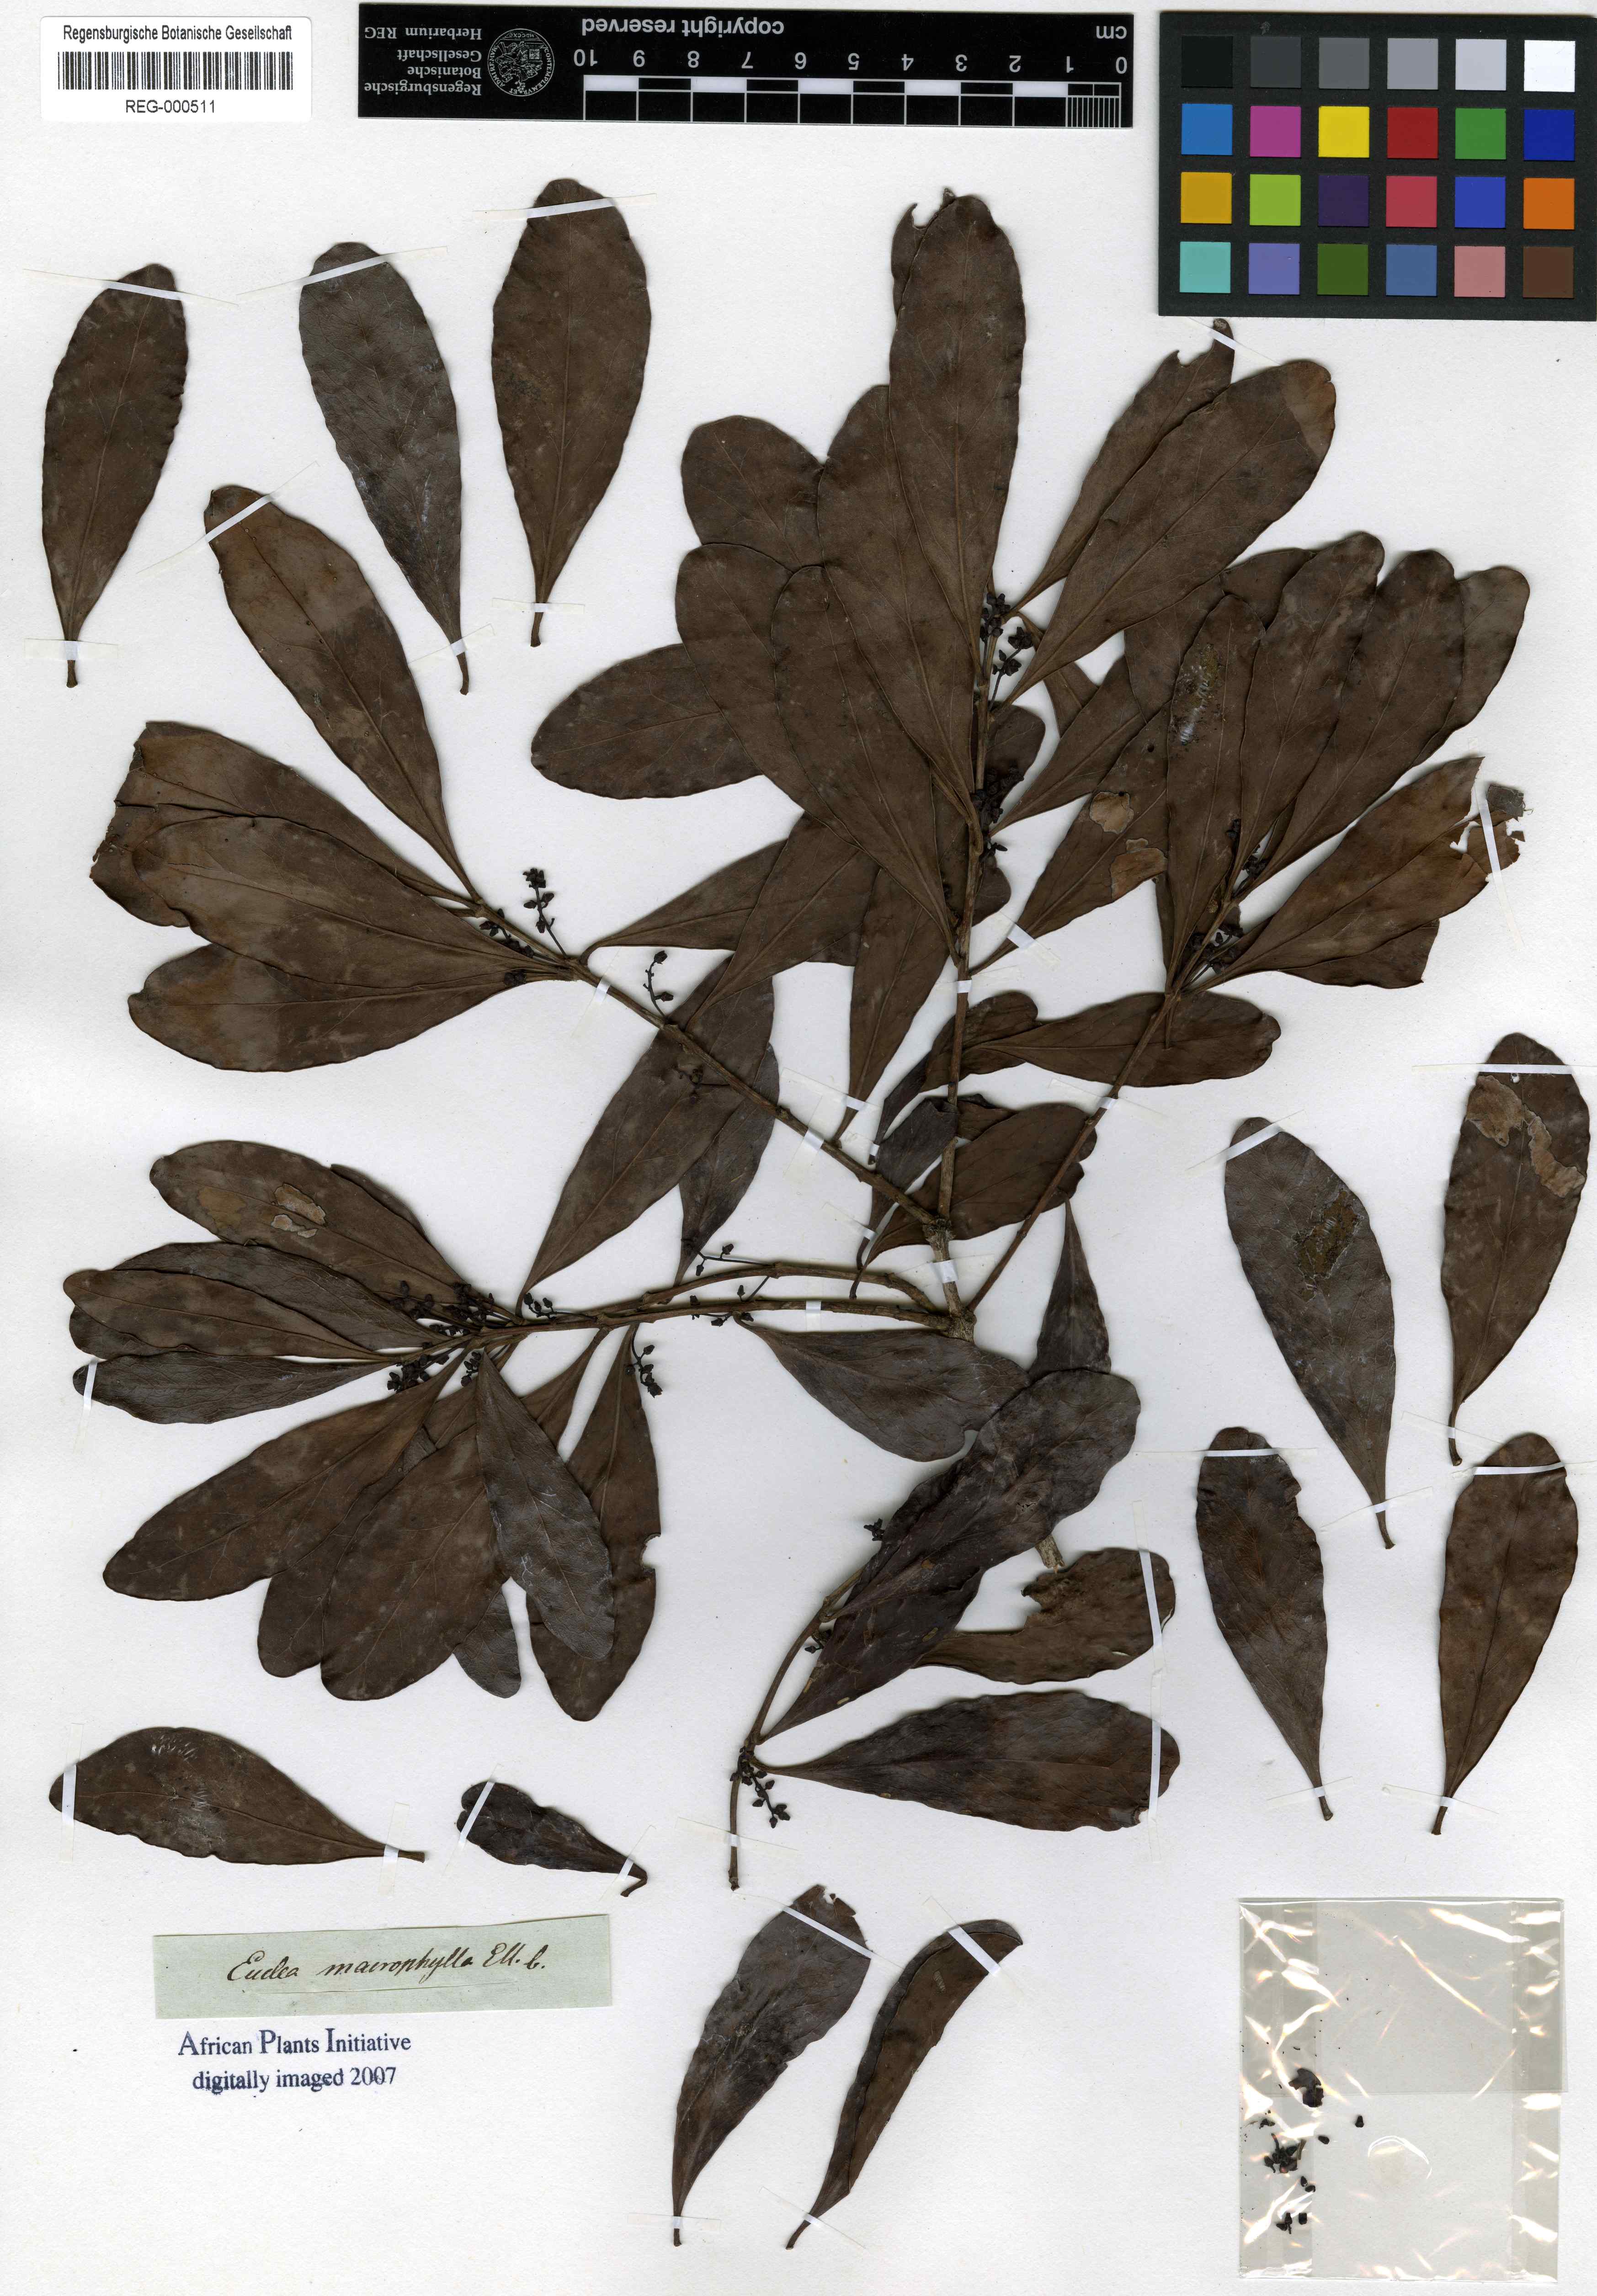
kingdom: Plantae
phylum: Tracheophyta
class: Magnoliopsida
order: Ericales
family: Ebenaceae
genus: Euclea
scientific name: Euclea racemosa
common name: Dune guarri
